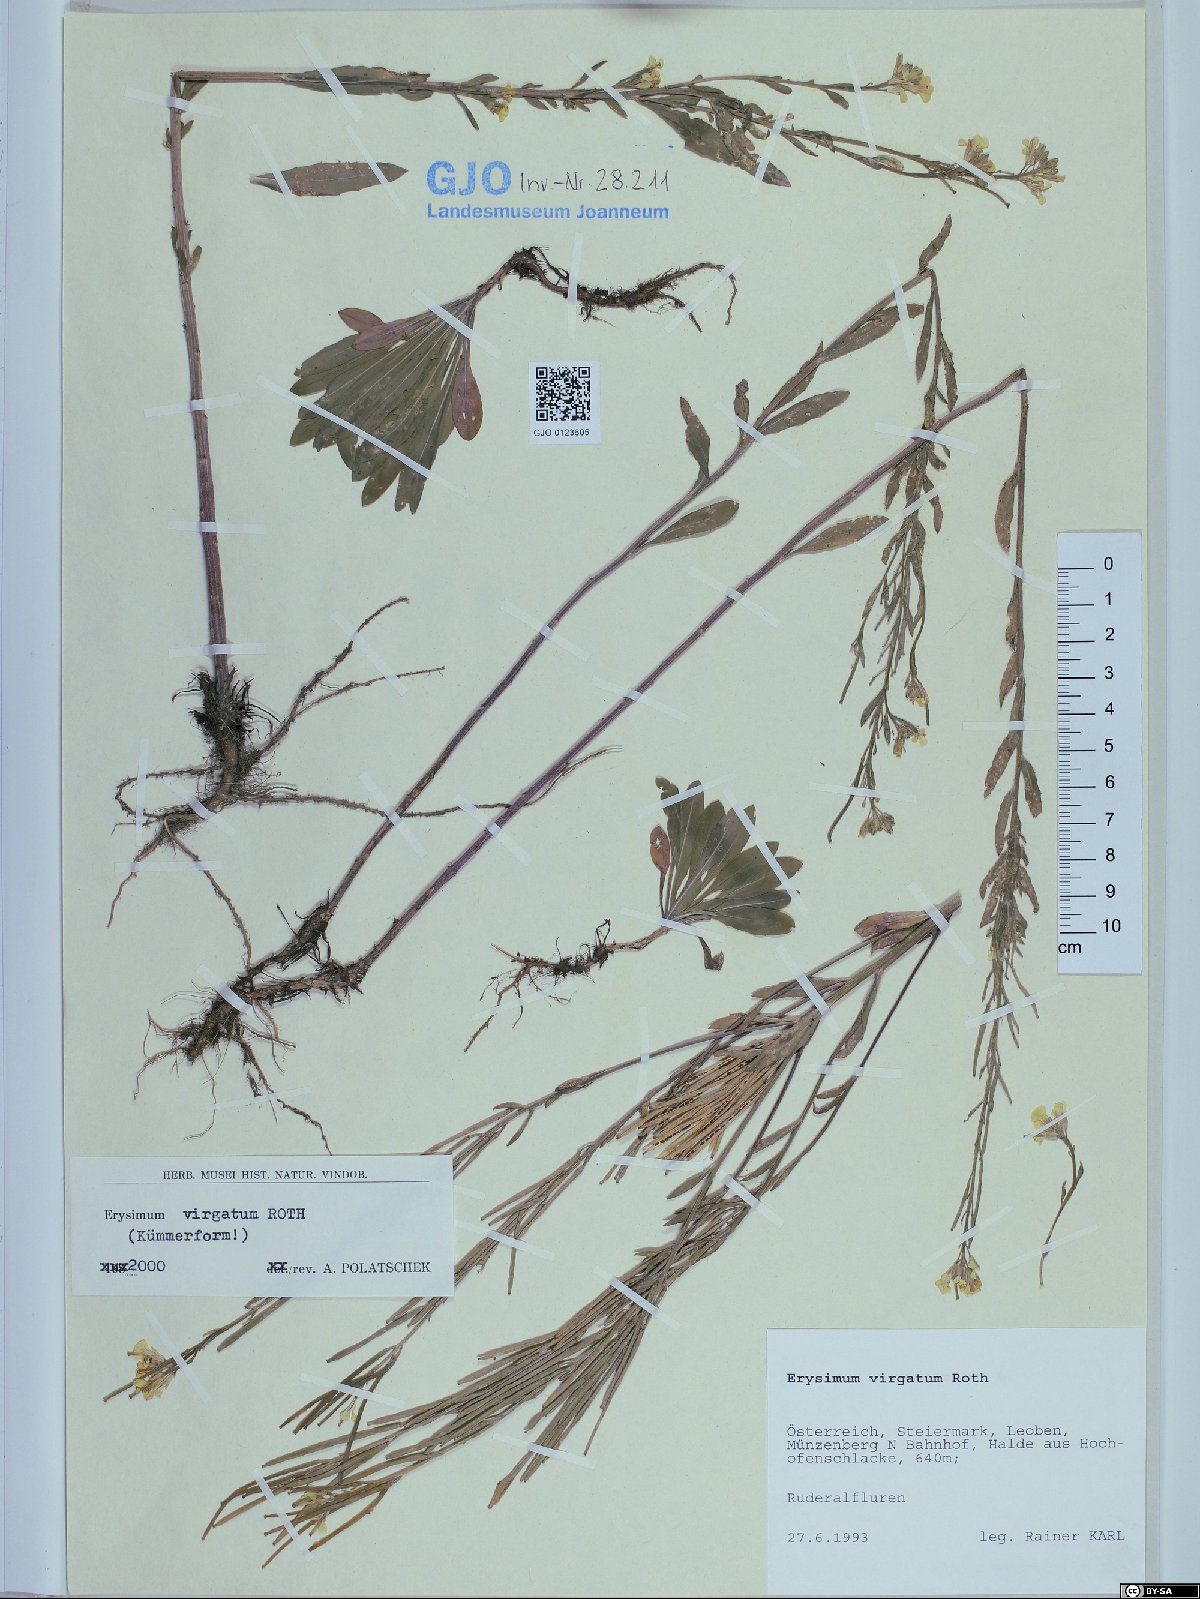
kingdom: Plantae
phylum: Tracheophyta
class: Magnoliopsida
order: Brassicales
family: Brassicaceae
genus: Erysimum
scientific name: Erysimum virgatum
